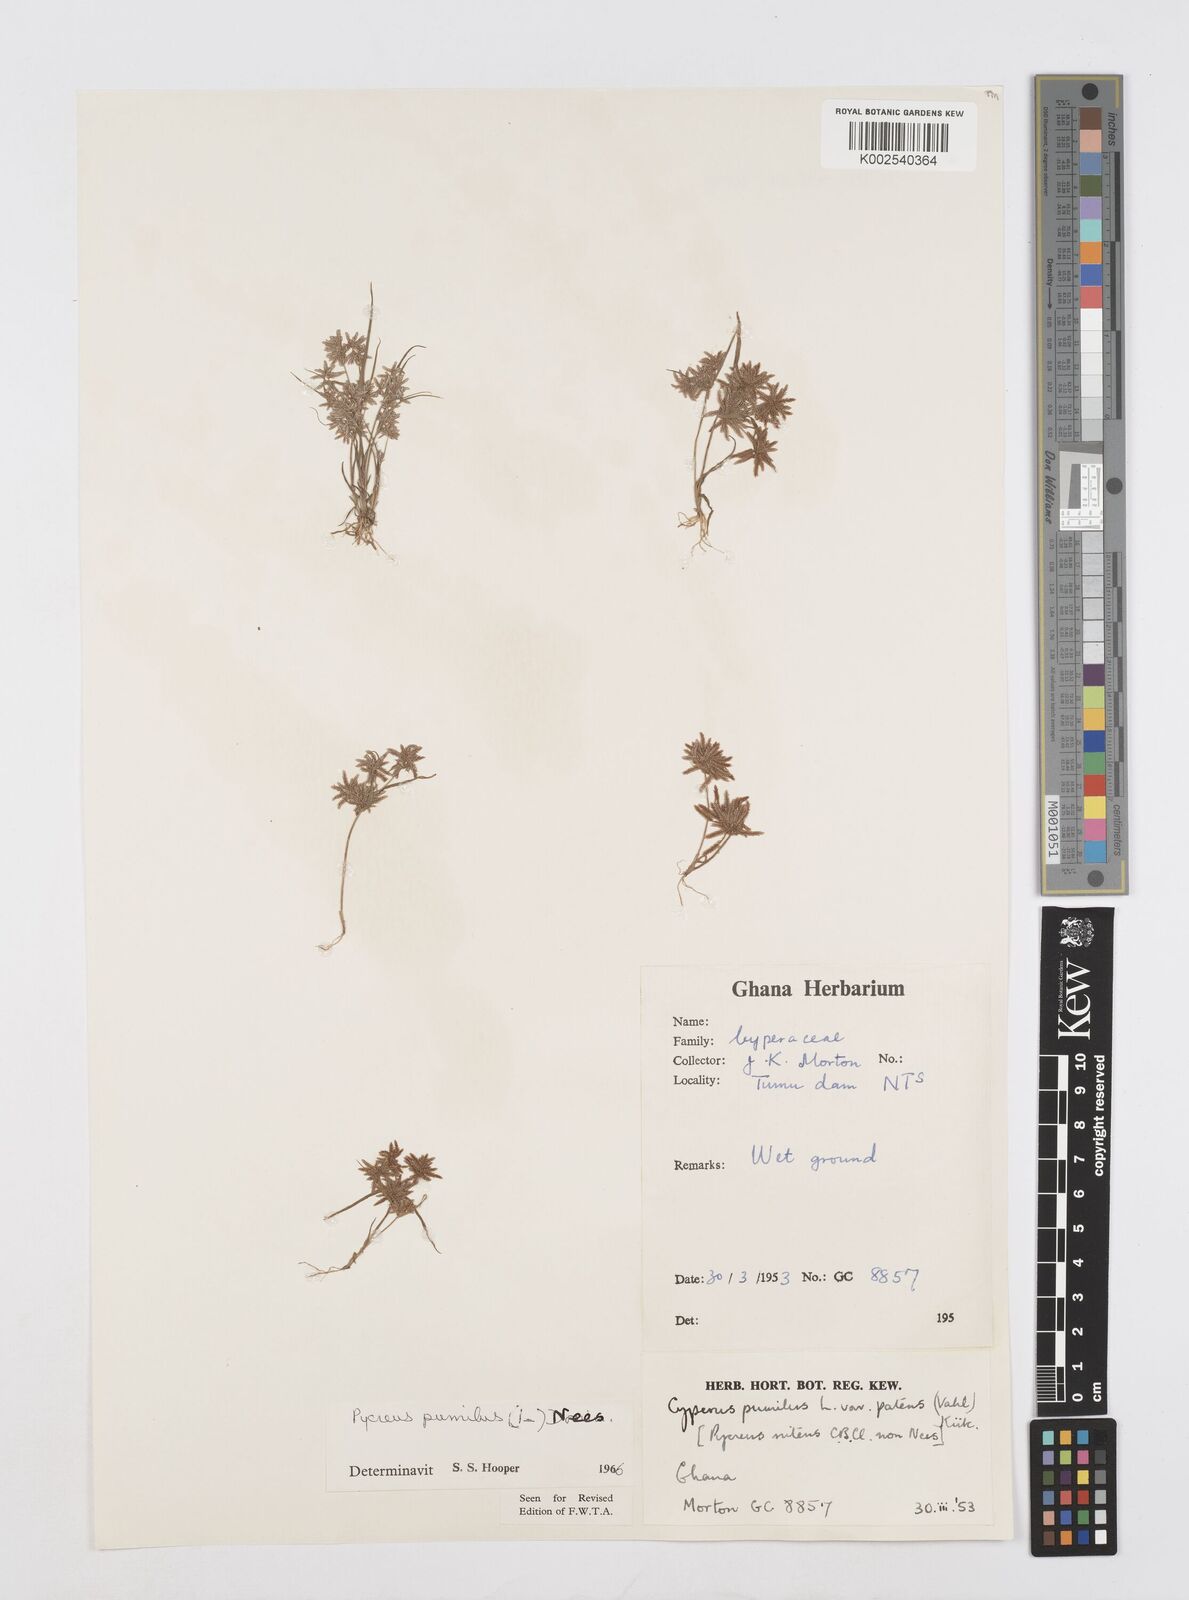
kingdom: Plantae
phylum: Tracheophyta
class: Liliopsida
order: Poales
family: Cyperaceae
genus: Cyperus
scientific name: Cyperus pumilus
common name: Low flatsedge
